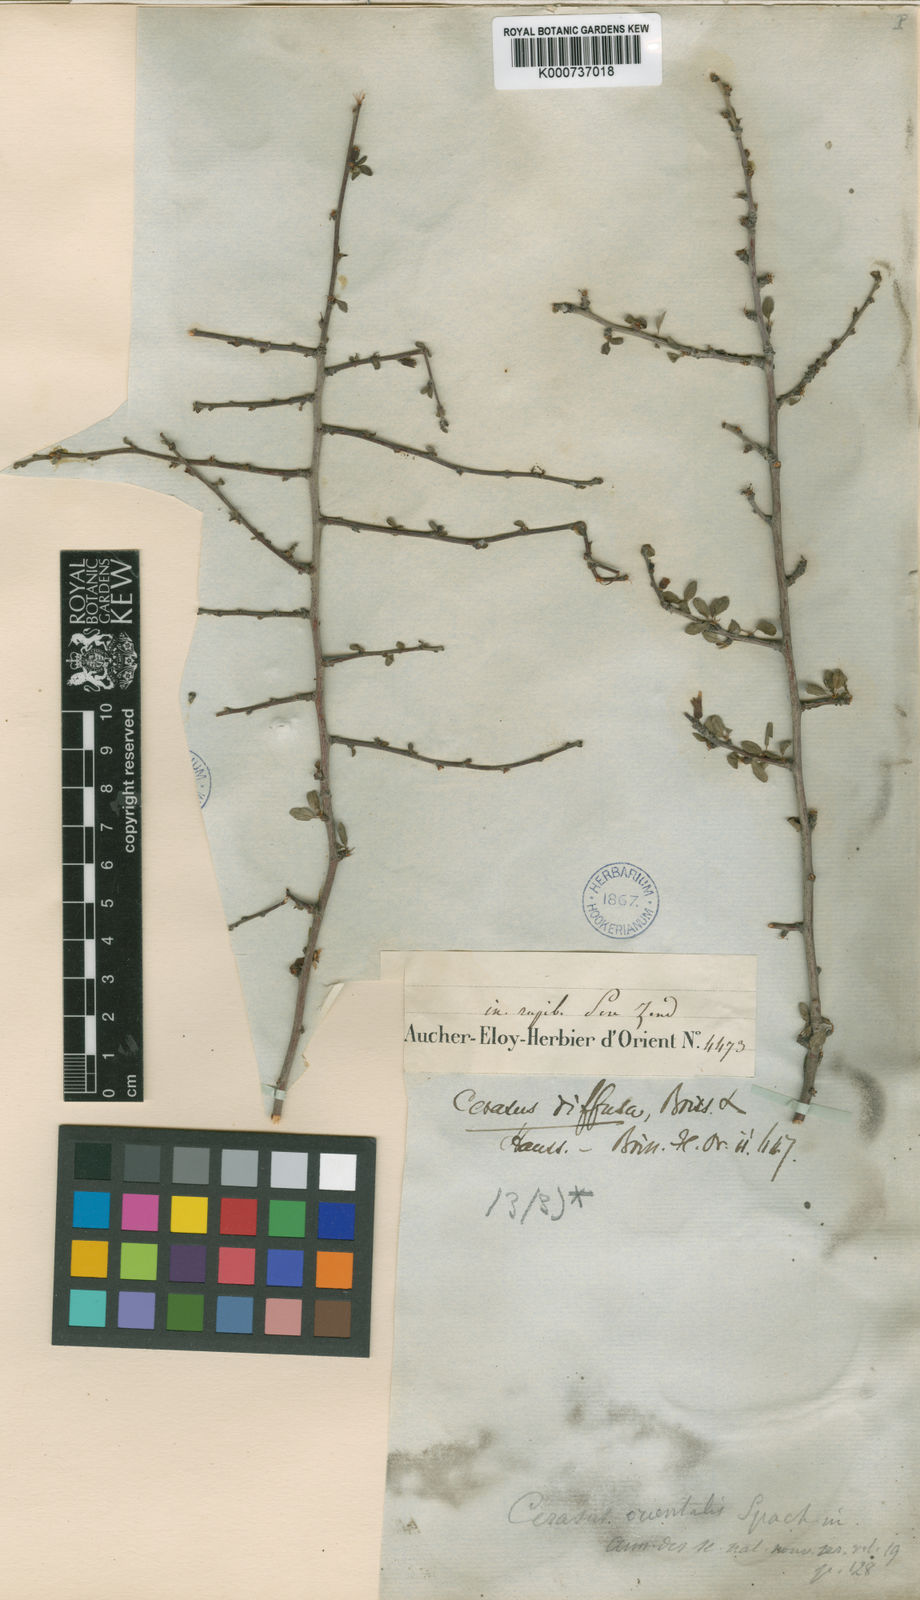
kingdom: Plantae
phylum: Tracheophyta
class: Magnoliopsida
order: Rosales
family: Rosaceae
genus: Prunus
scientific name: Prunus Cerasus myrtifolia
